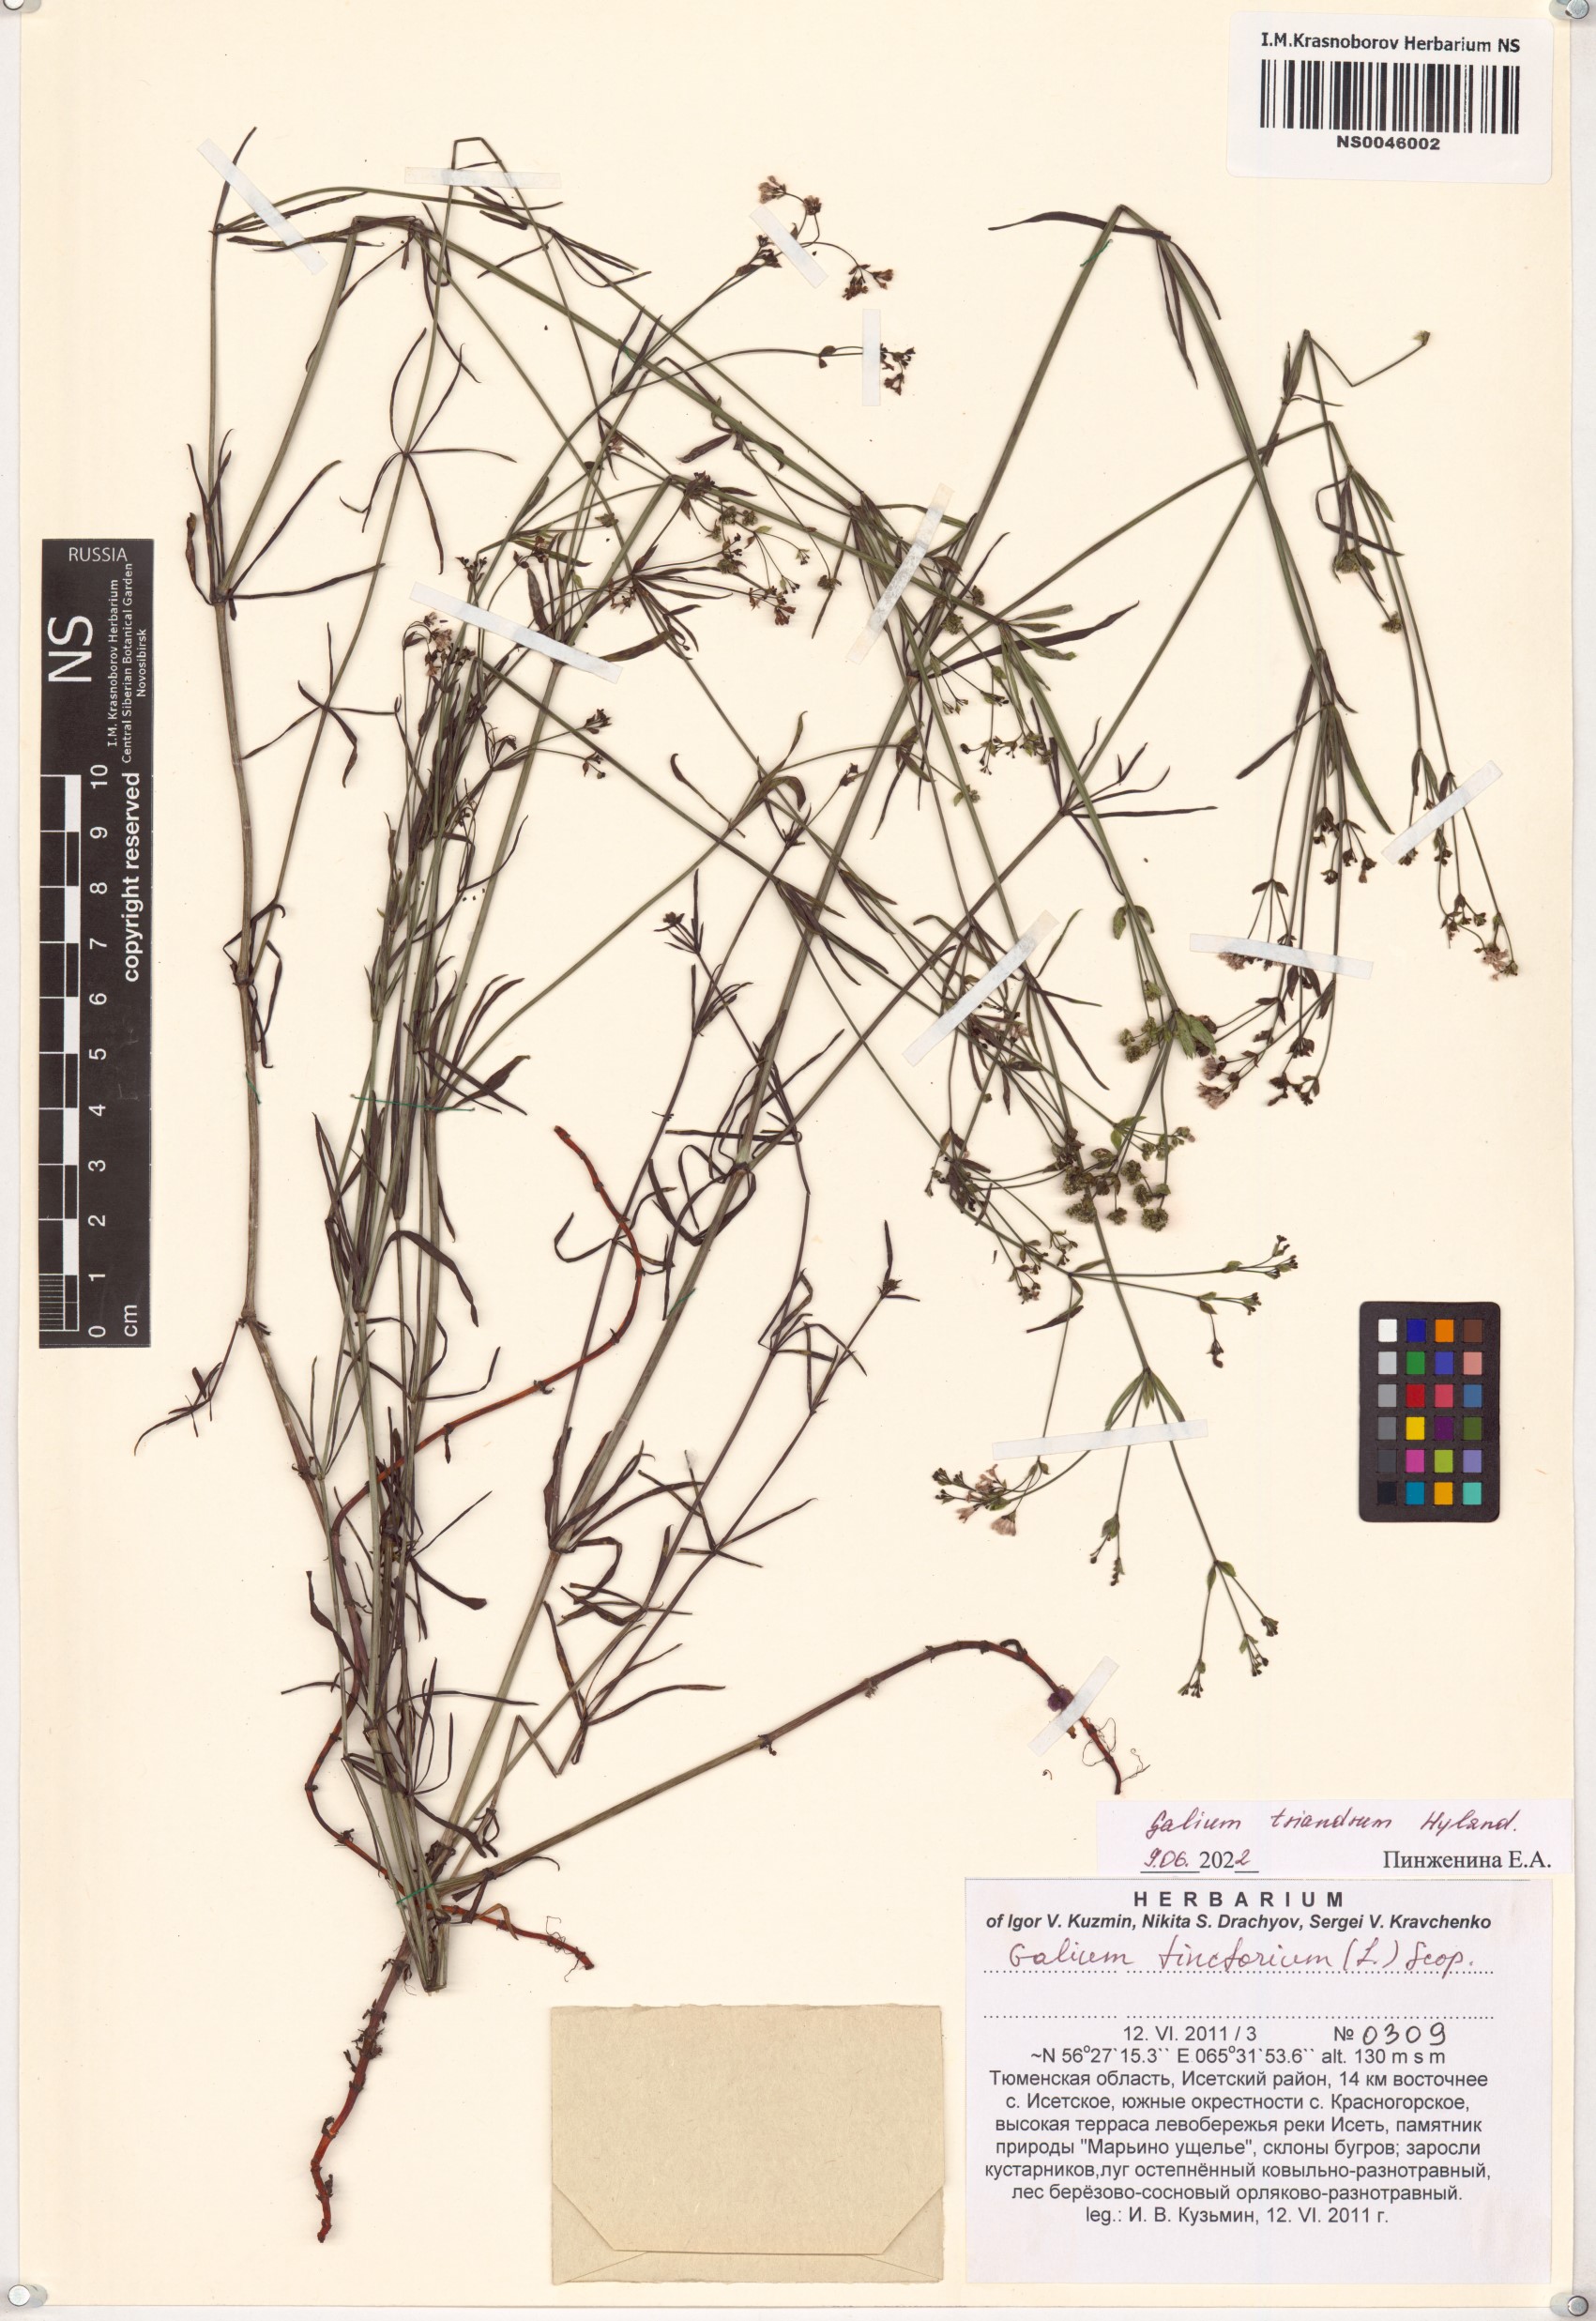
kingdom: Plantae
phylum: Tracheophyta
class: Magnoliopsida
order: Gentianales
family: Rubiaceae
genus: Asperula
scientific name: Asperula tinctoria
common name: Dyer's woodruff
